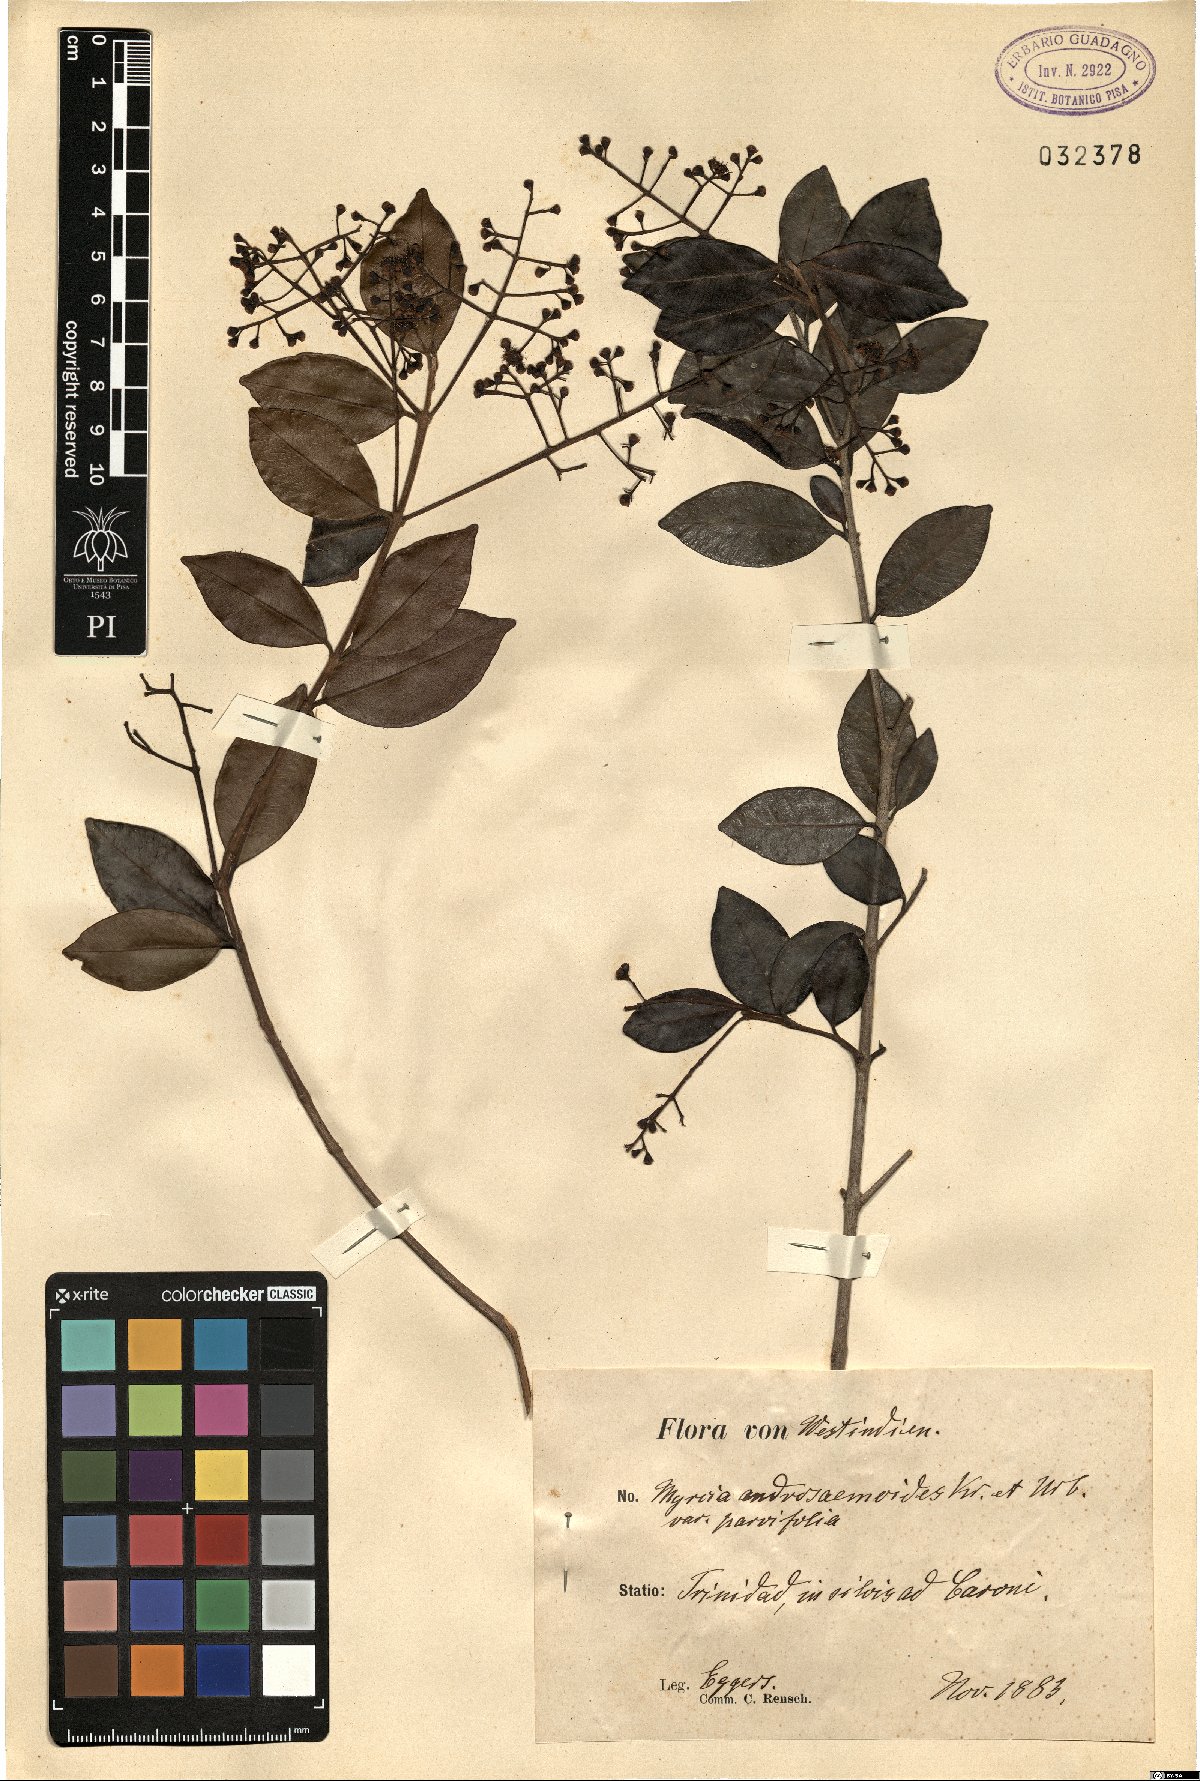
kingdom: Plantae
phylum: Tracheophyta
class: Magnoliopsida
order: Myrtales
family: Myrtaceae
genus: Myrcia
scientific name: Myrcia guianensis
